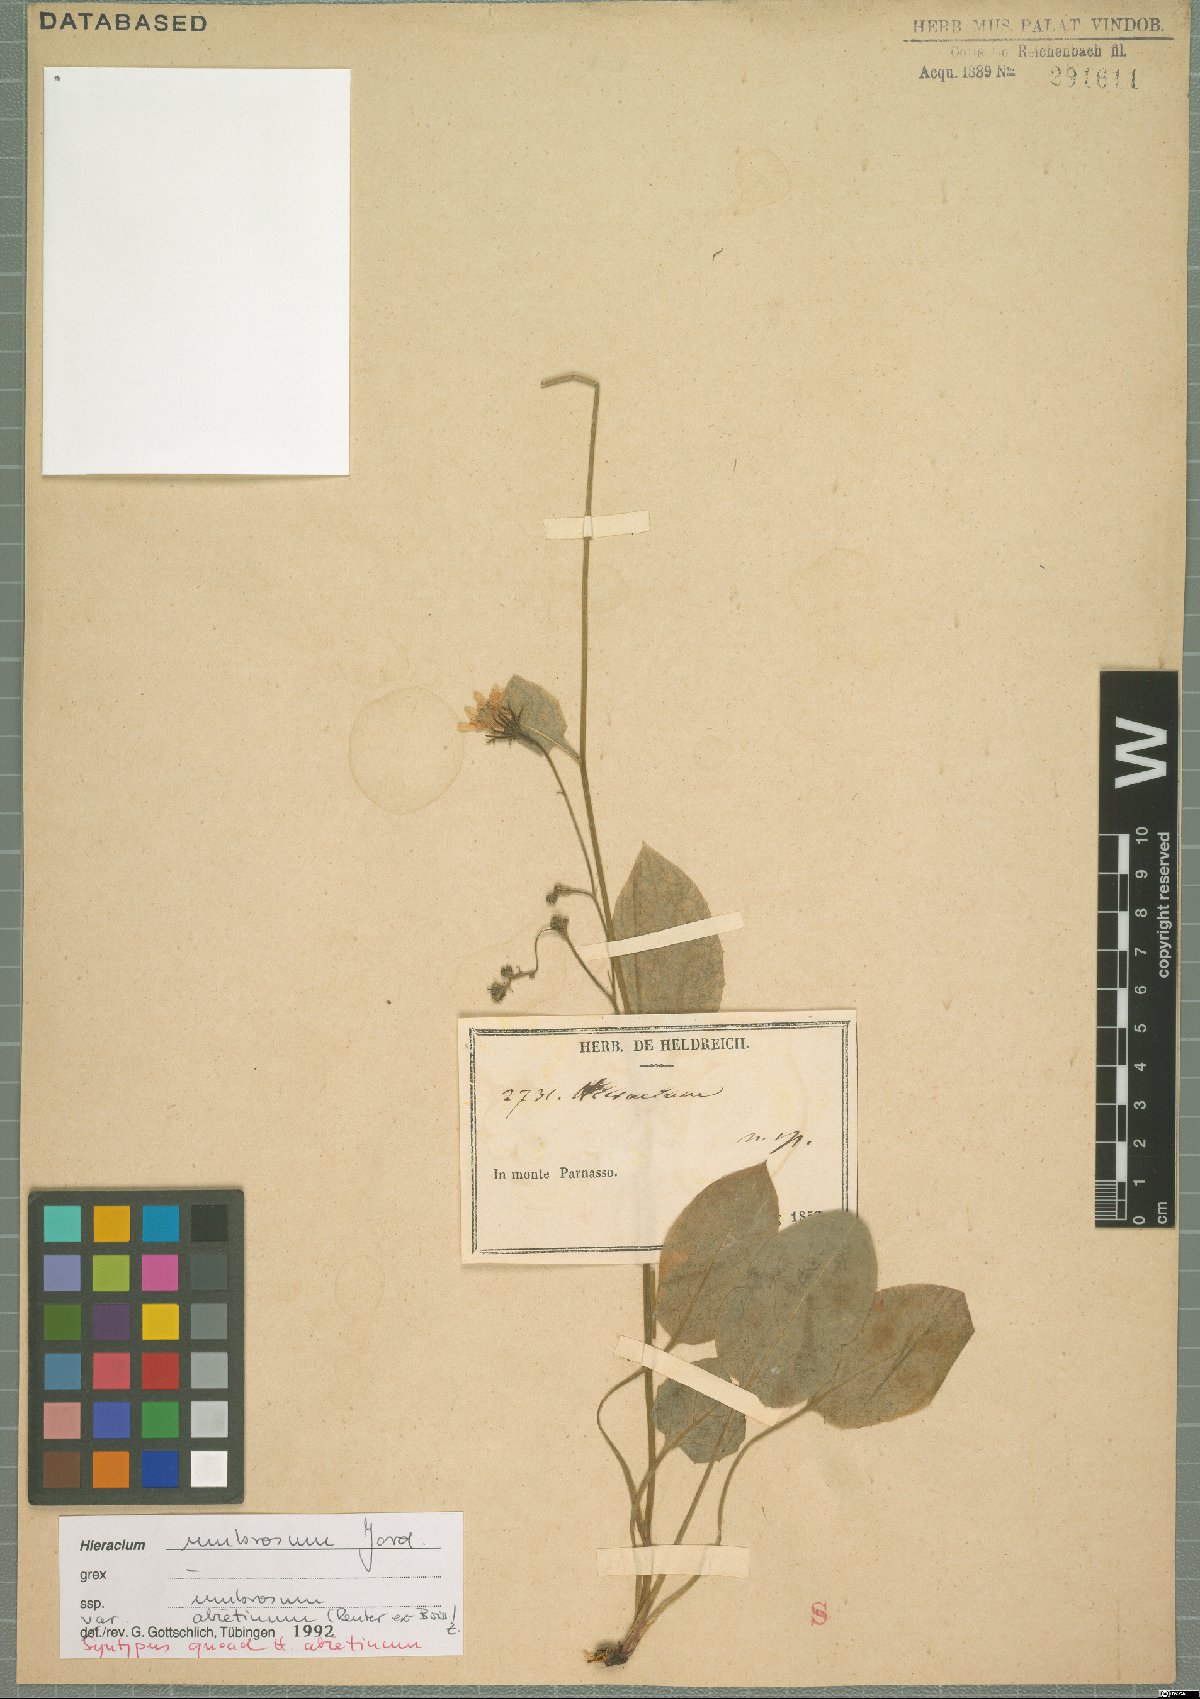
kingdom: Plantae
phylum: Tracheophyta
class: Magnoliopsida
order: Asterales
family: Asteraceae
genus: Hieracium
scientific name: Hieracium umbrosum
